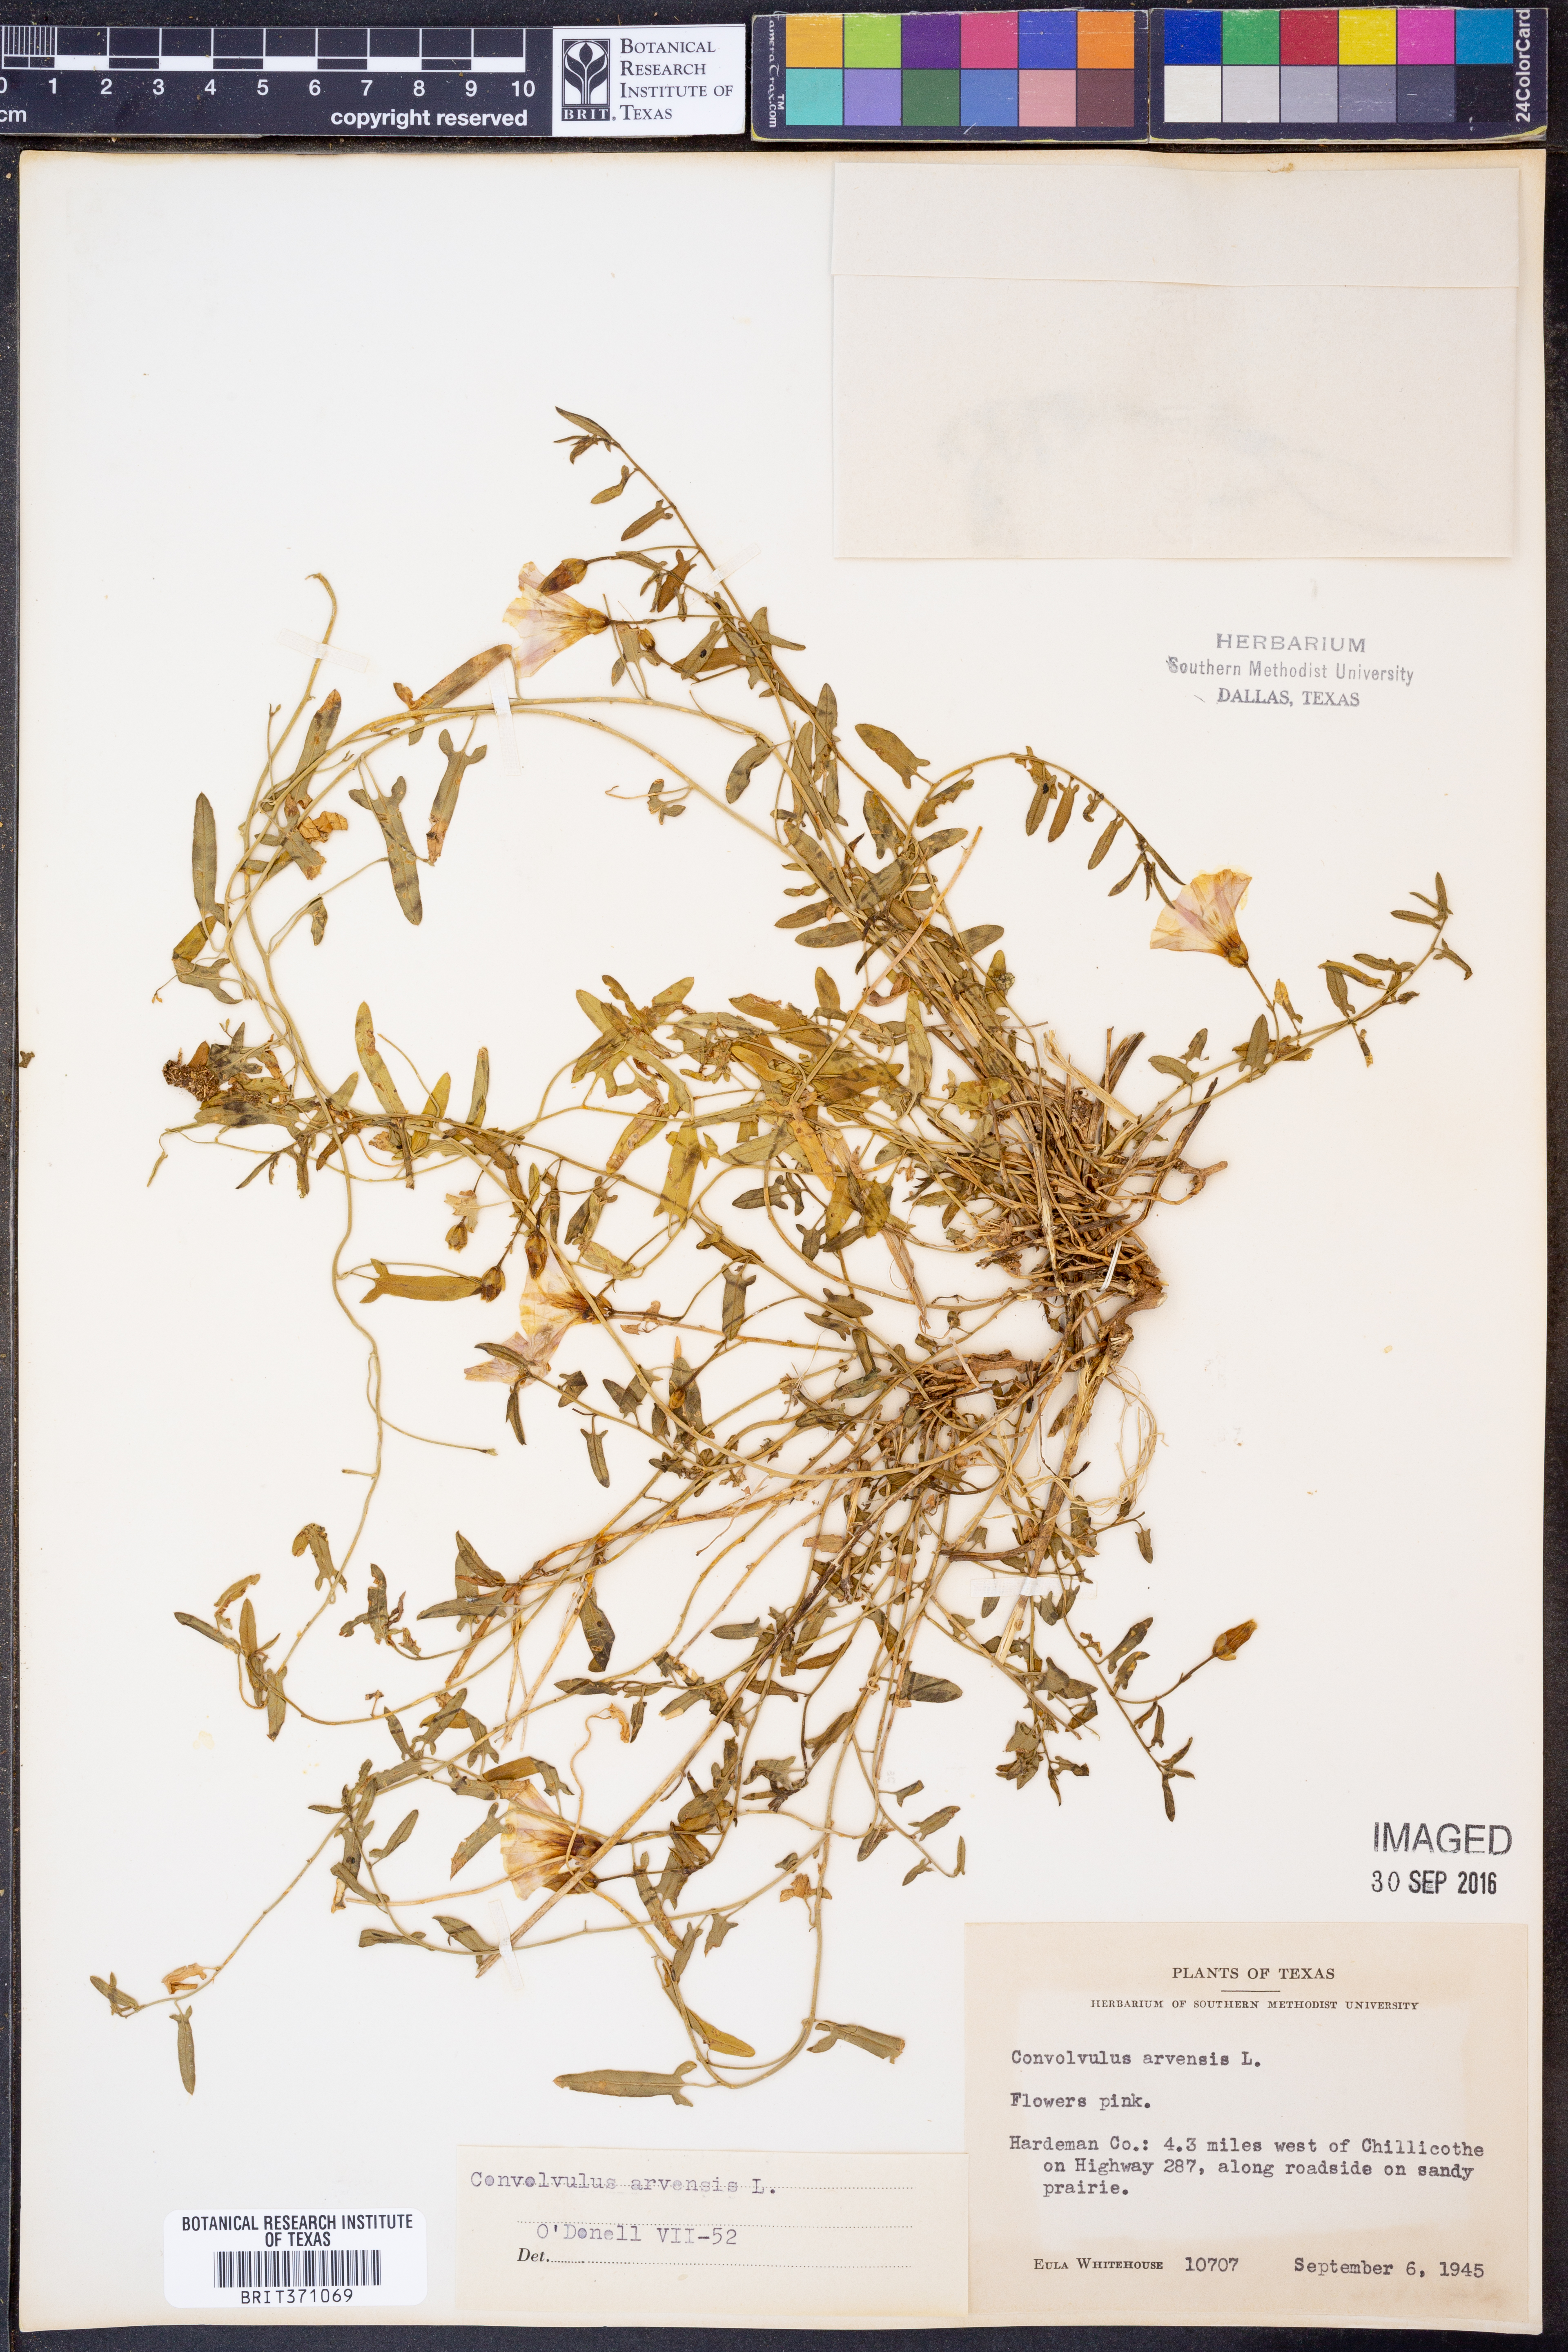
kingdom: Plantae
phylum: Tracheophyta
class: Magnoliopsida
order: Solanales
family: Convolvulaceae
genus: Convolvulus
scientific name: Convolvulus arvensis
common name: Field bindweed
